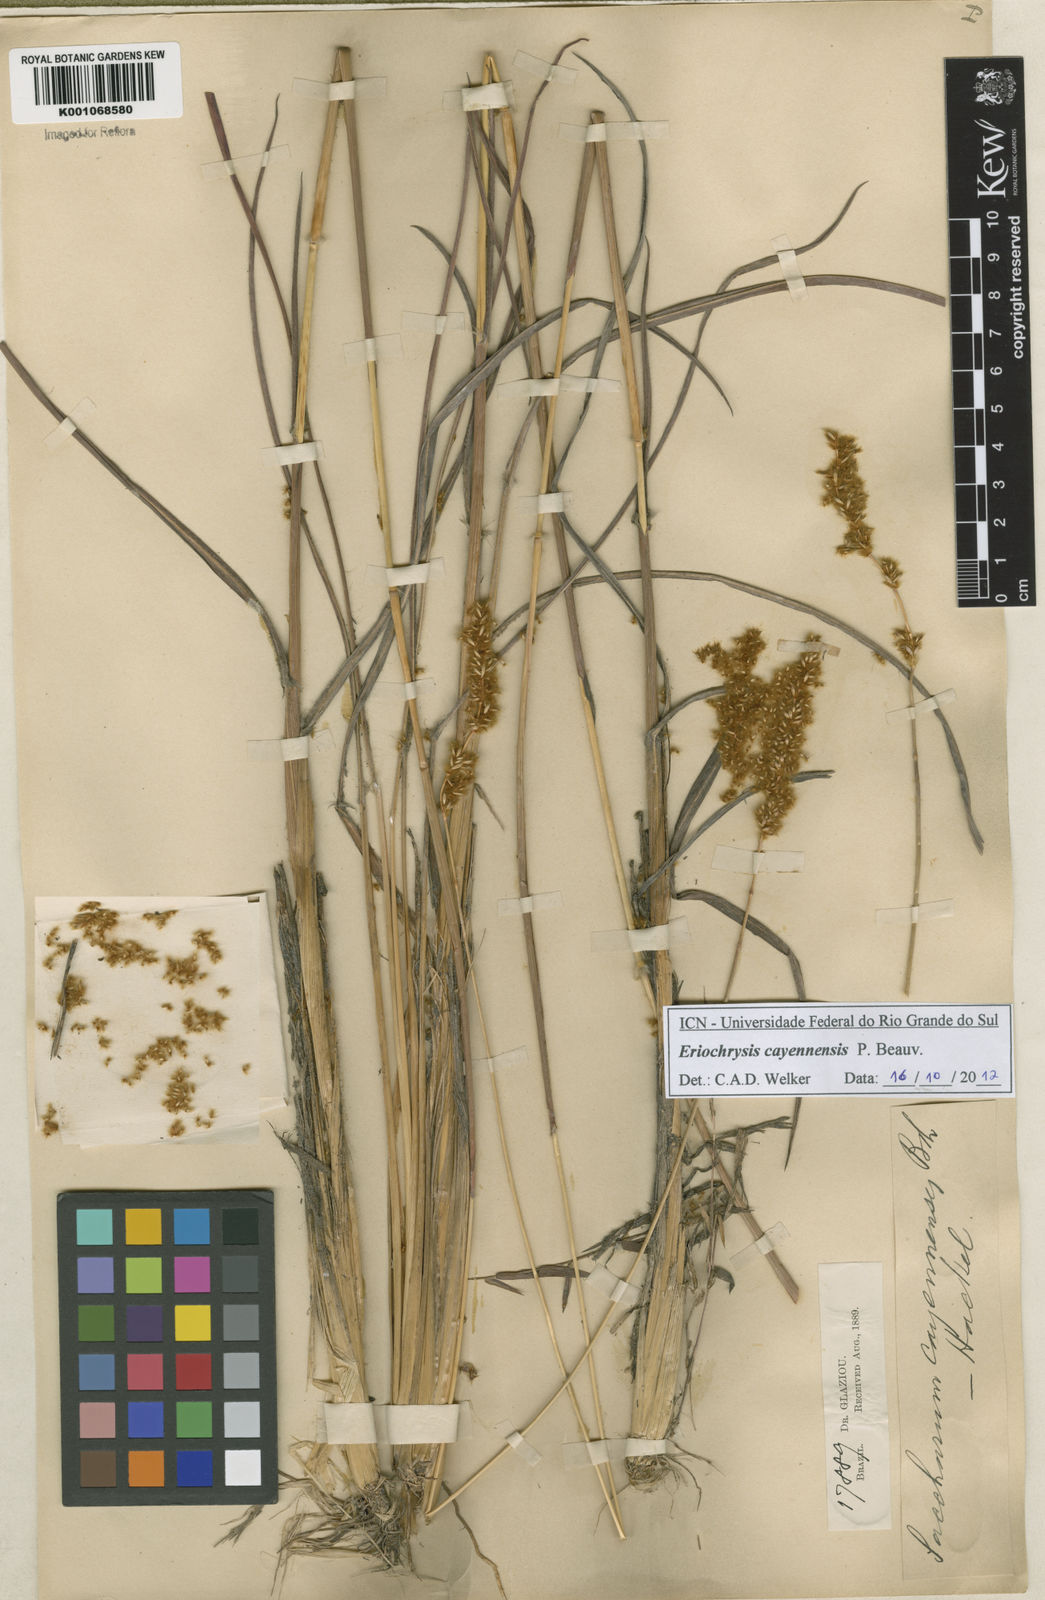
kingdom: Plantae
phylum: Tracheophyta
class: Liliopsida
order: Poales
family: Poaceae
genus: Eriochrysis
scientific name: Eriochrysis cayennensis
